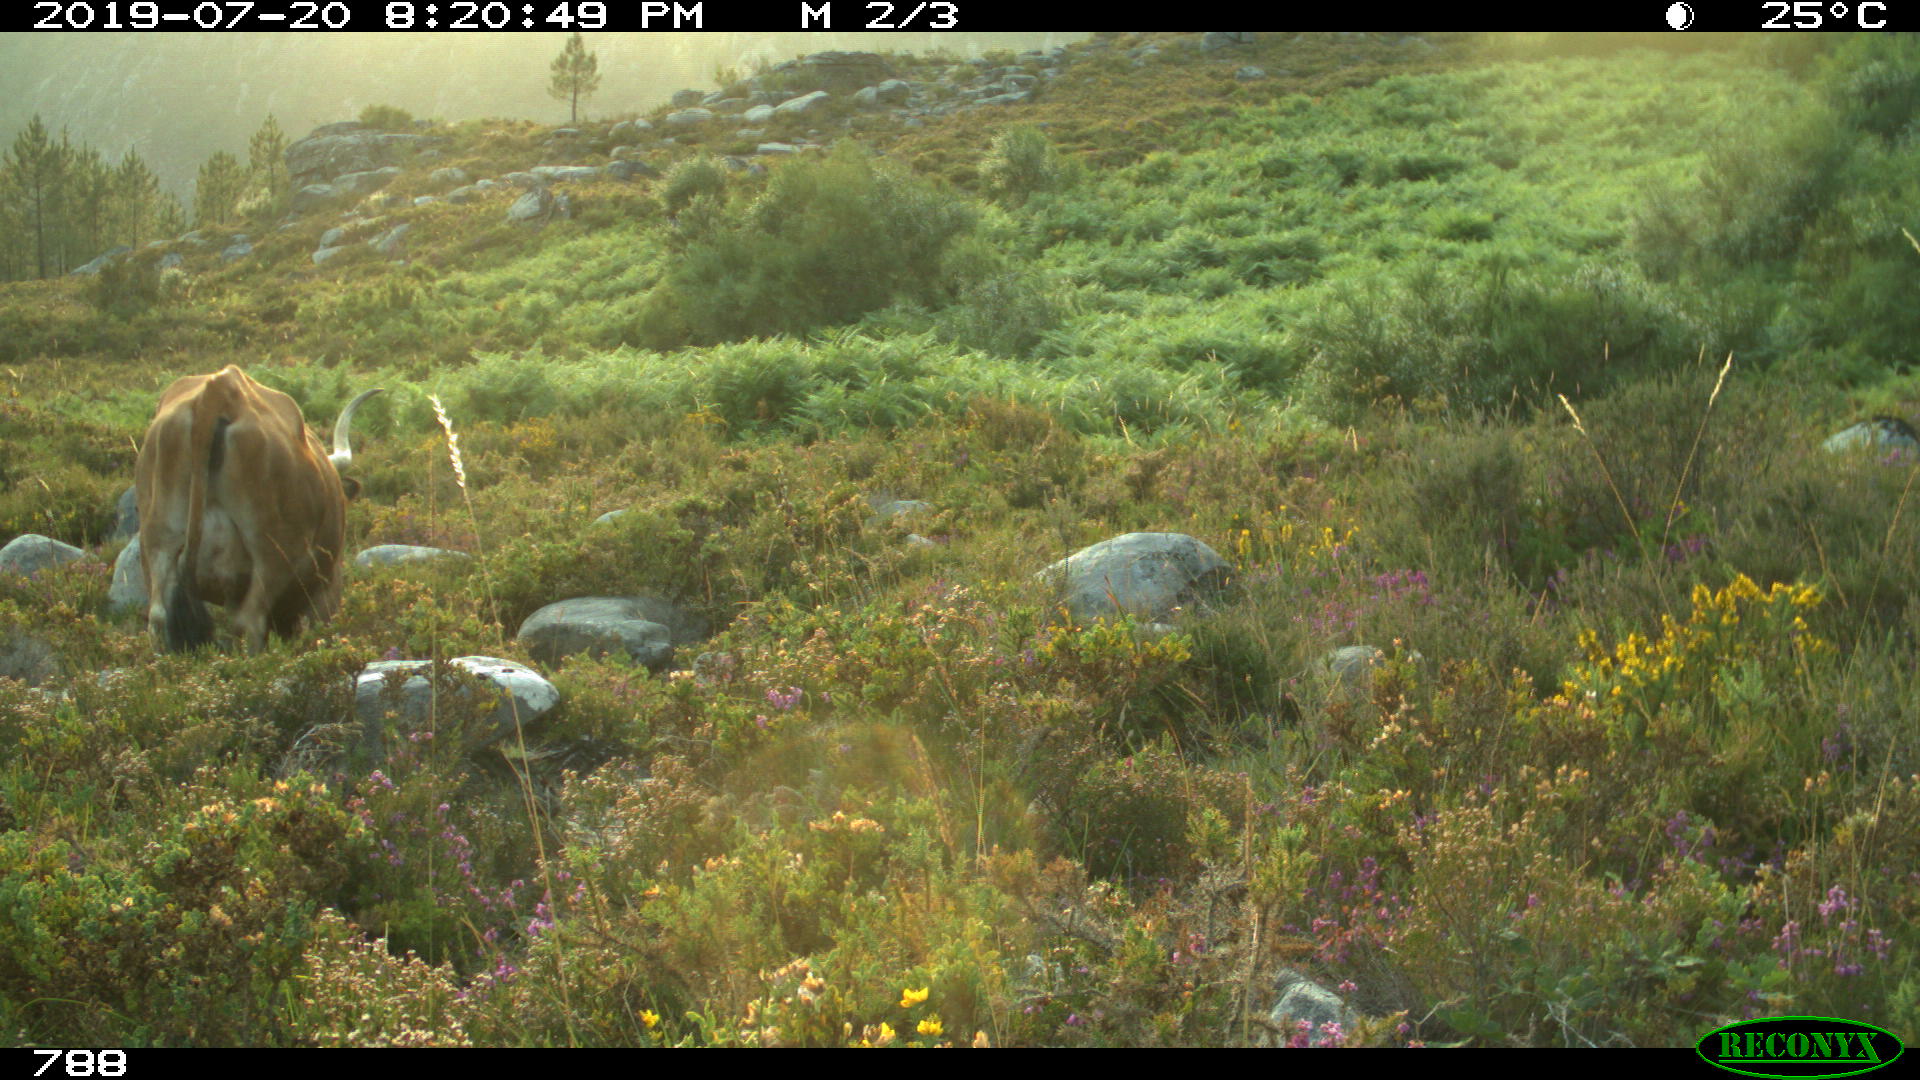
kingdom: Animalia
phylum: Chordata
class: Mammalia
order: Artiodactyla
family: Bovidae
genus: Bos
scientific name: Bos taurus
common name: Domesticated cattle
